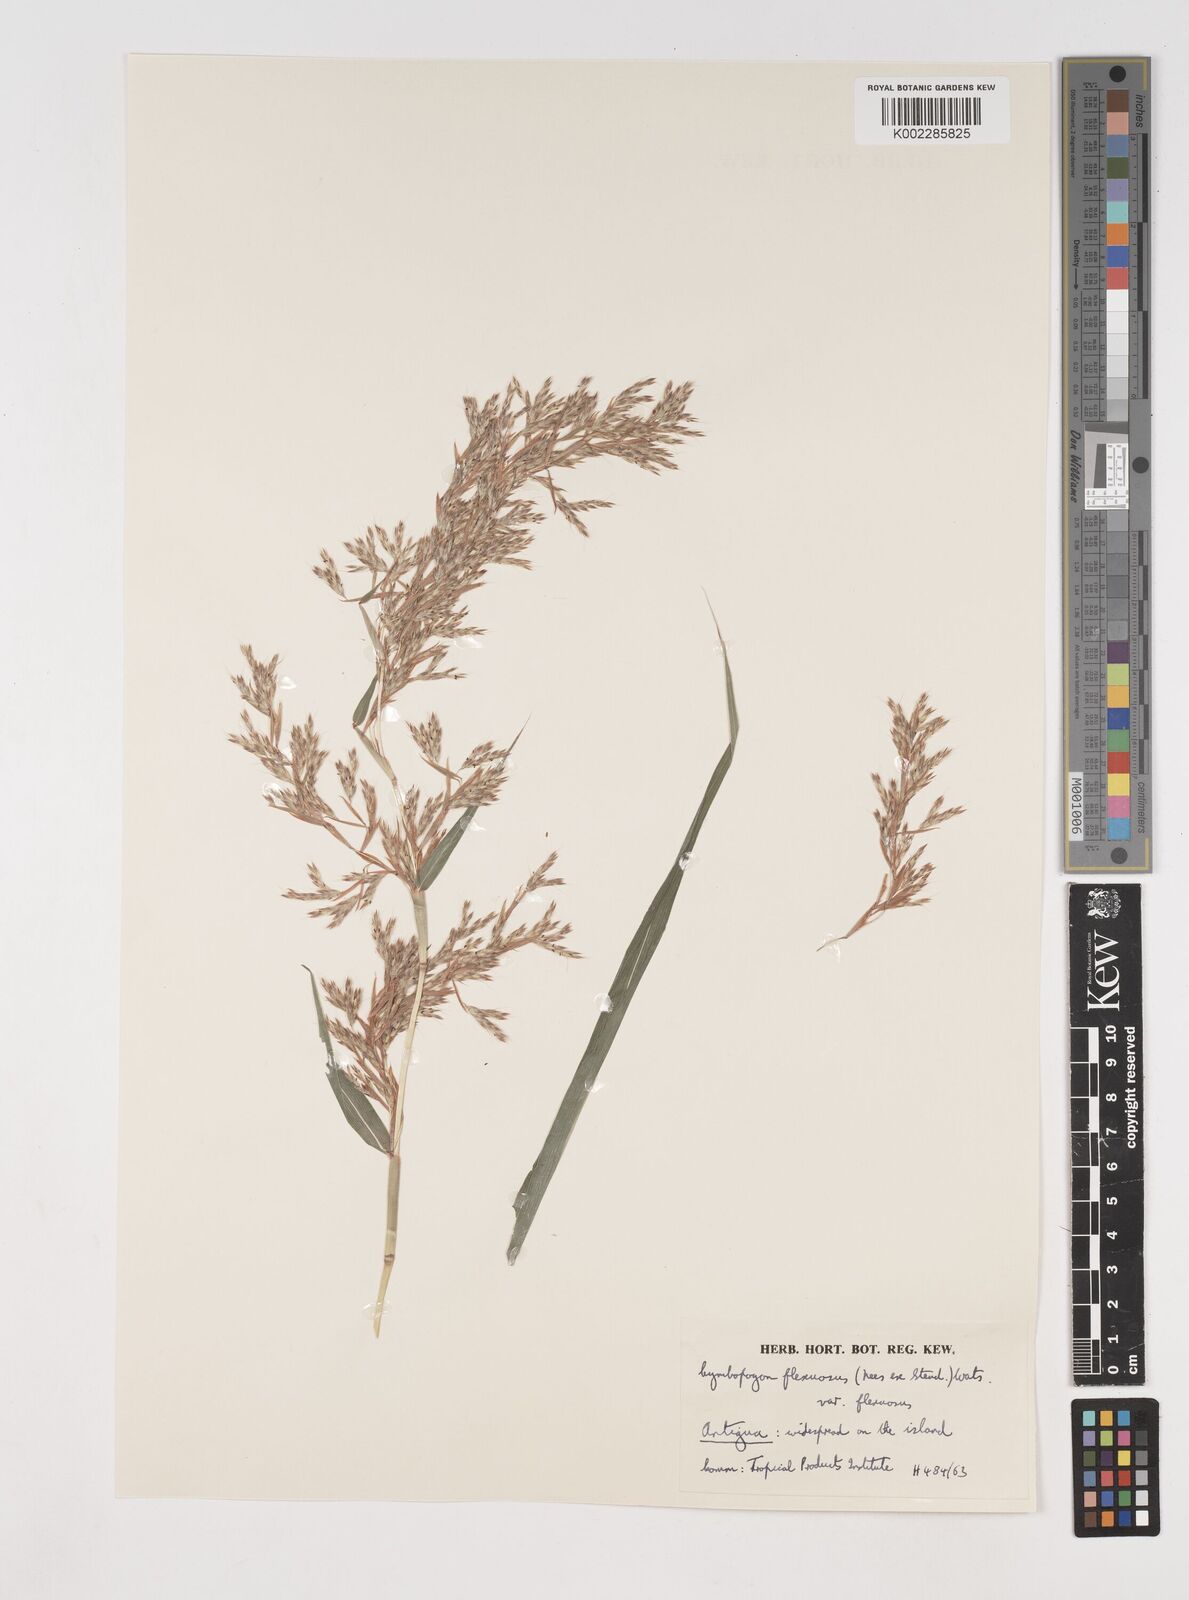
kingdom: Plantae
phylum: Tracheophyta
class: Liliopsida
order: Poales
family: Poaceae
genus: Cymbopogon
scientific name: Cymbopogon flexuosus
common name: East indian lemongrass
